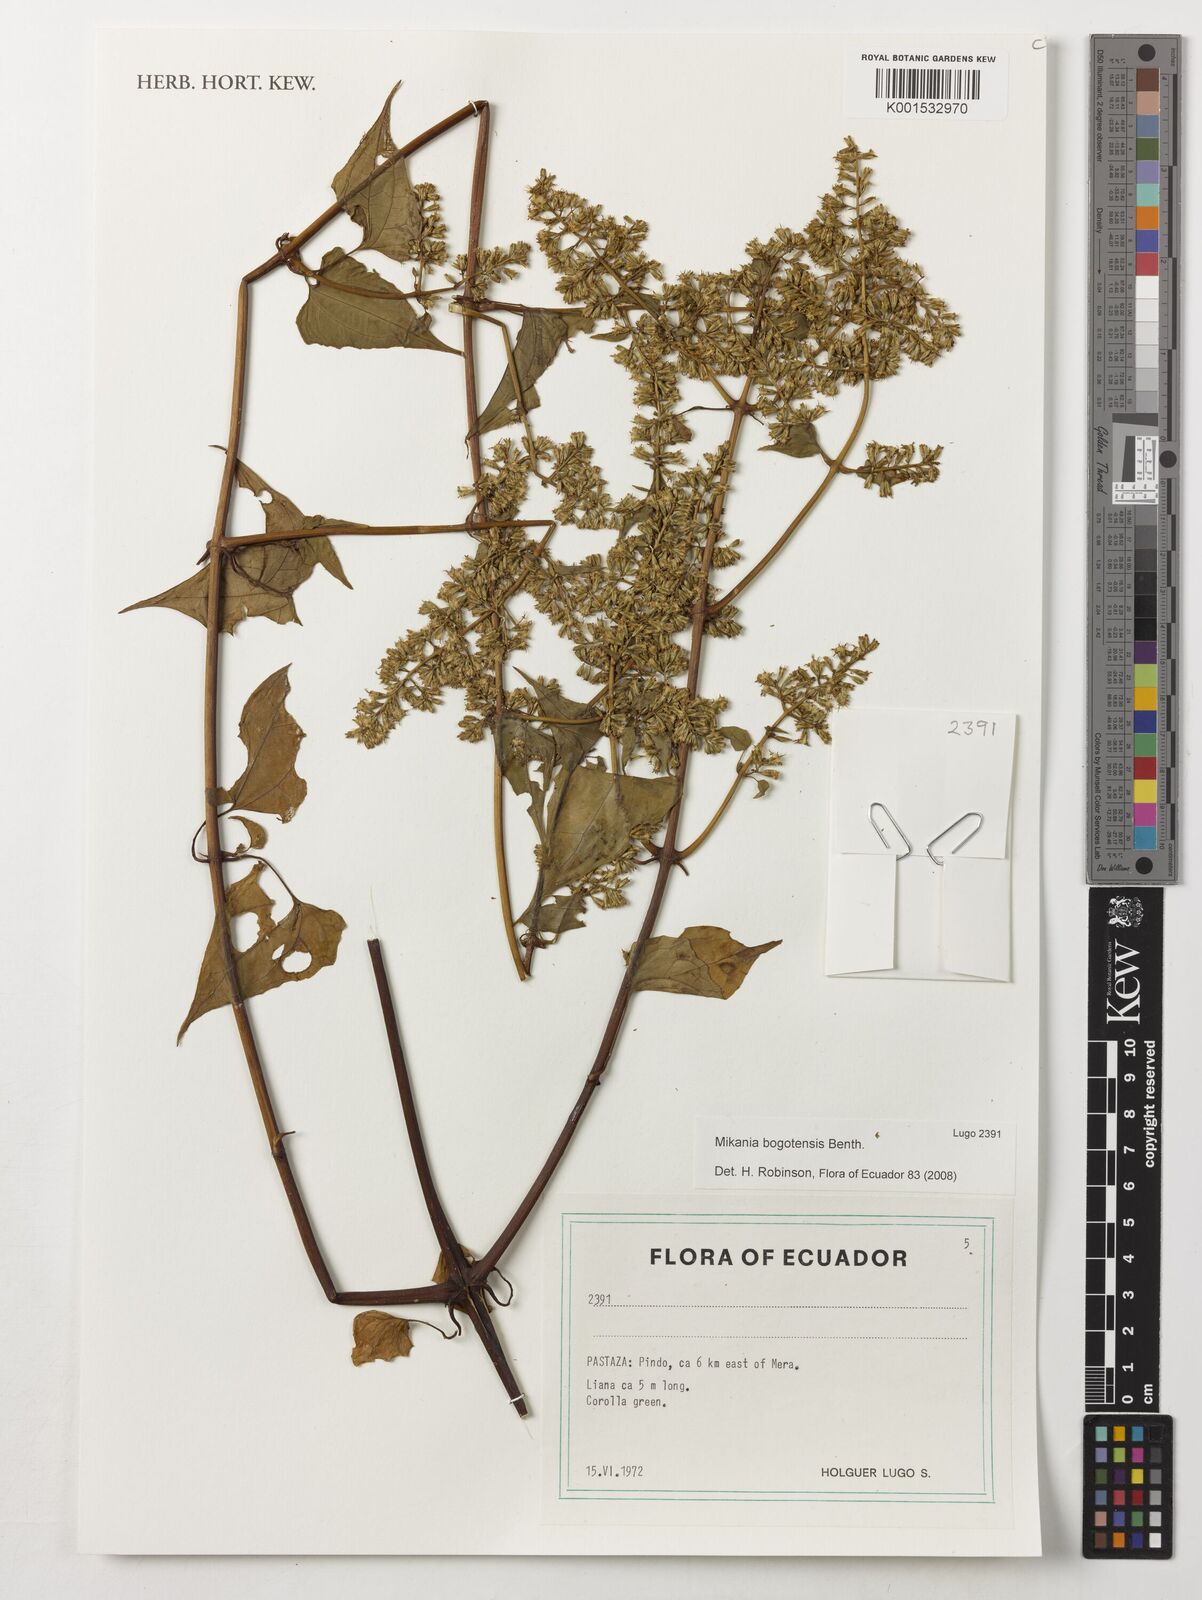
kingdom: Plantae
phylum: Tracheophyta
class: Magnoliopsida
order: Asterales
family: Asteraceae
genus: Mikania
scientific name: Mikania bogotensis
